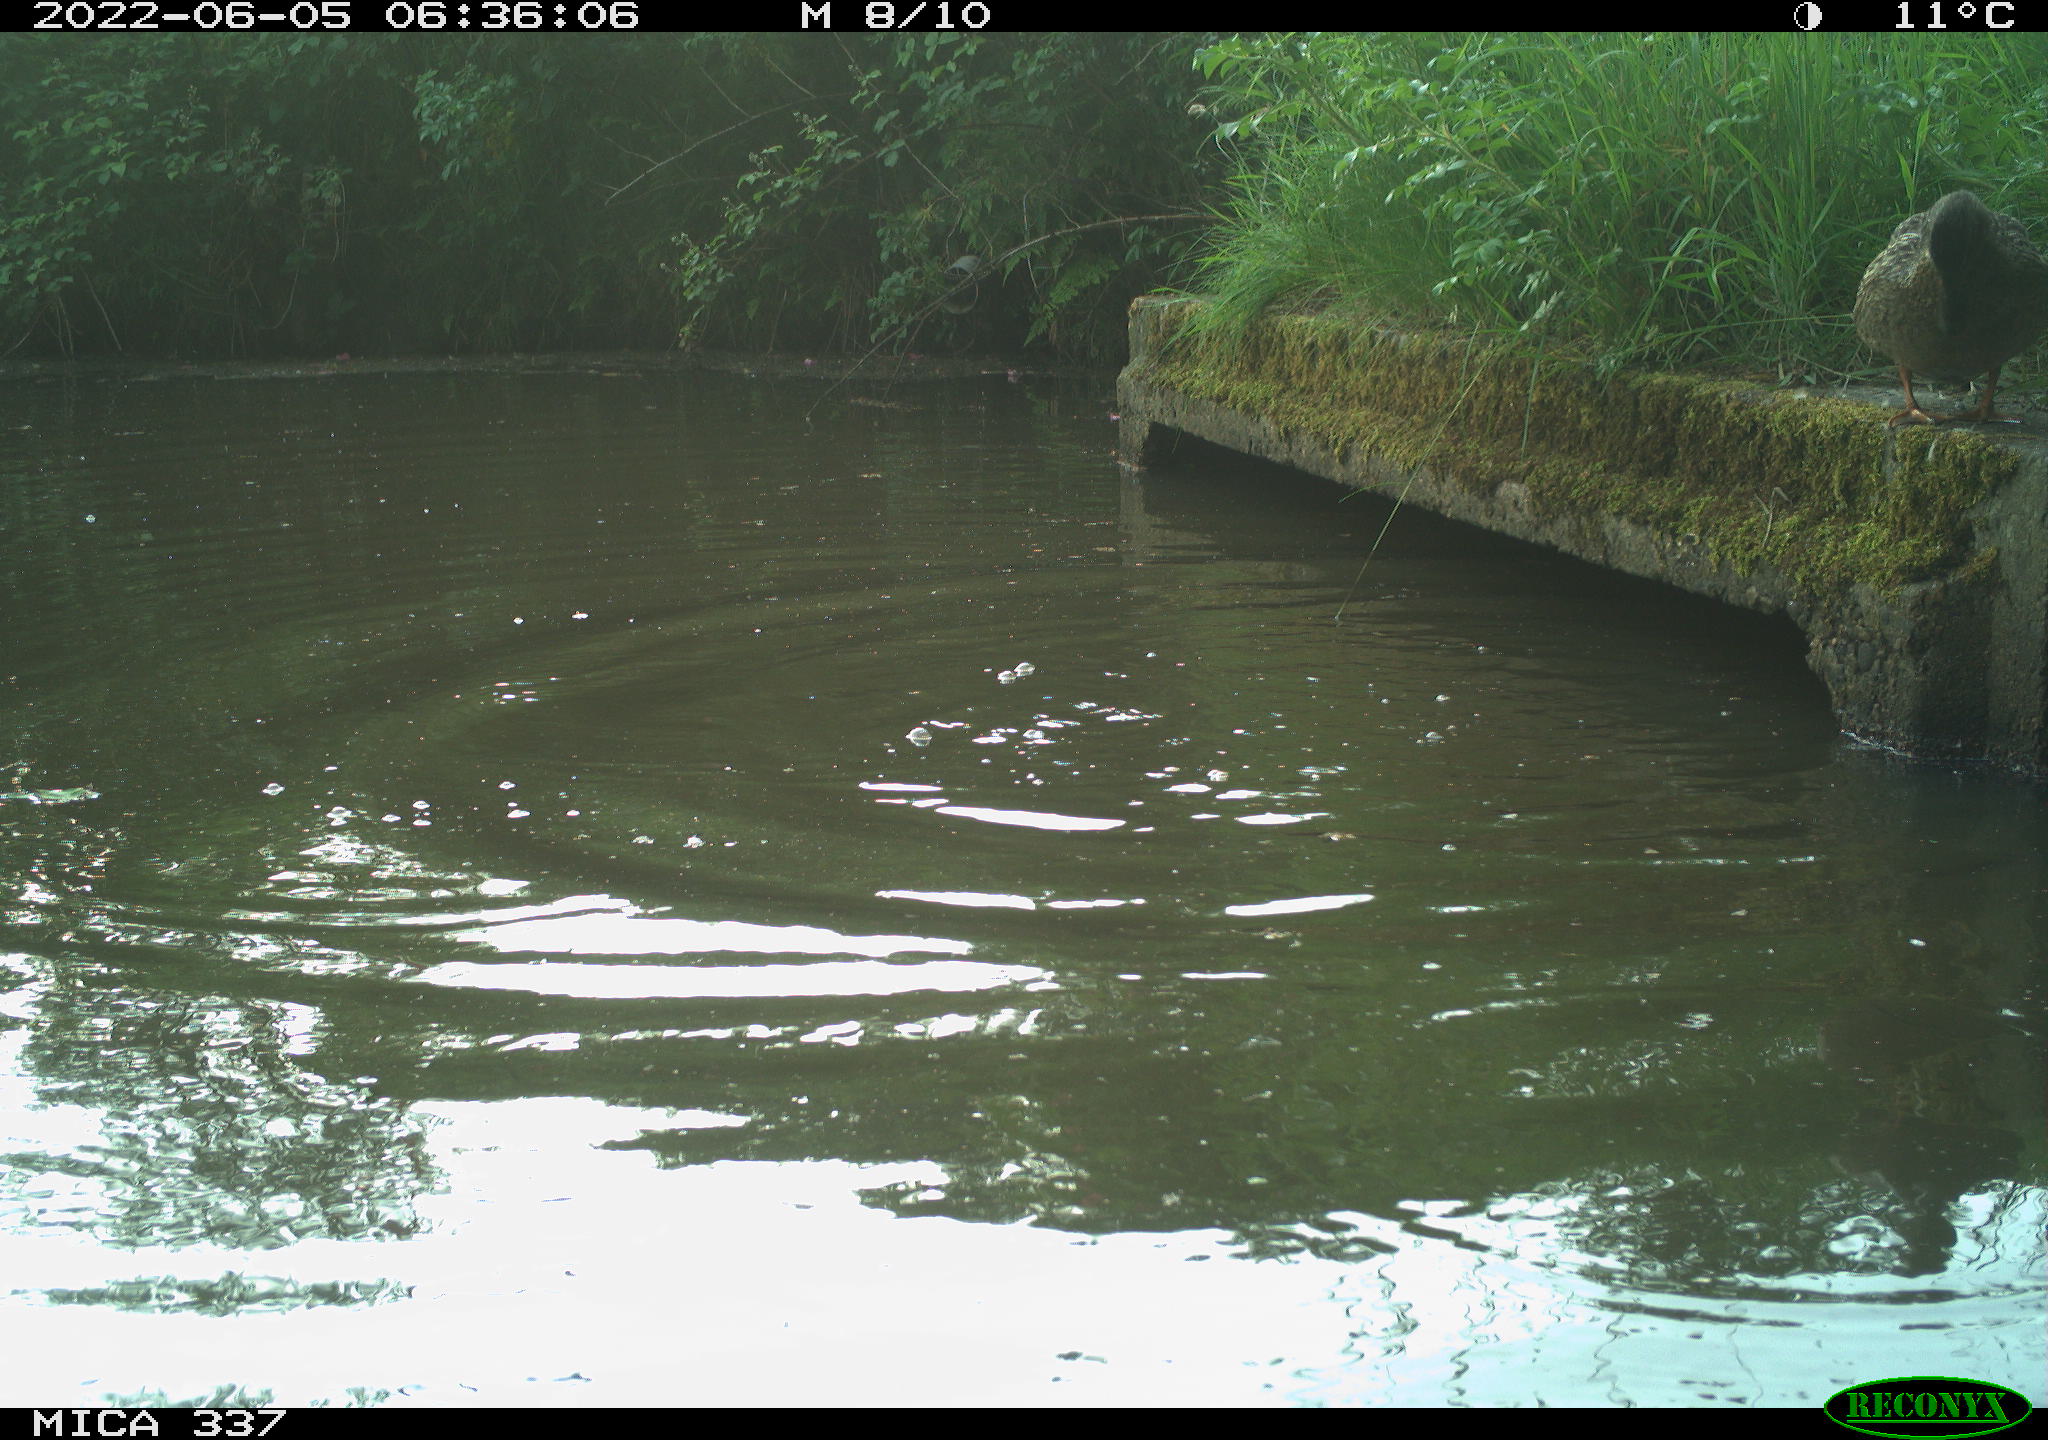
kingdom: Animalia
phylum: Chordata
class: Aves
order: Anseriformes
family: Anatidae
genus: Mareca
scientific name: Mareca strepera
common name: Gadwall
